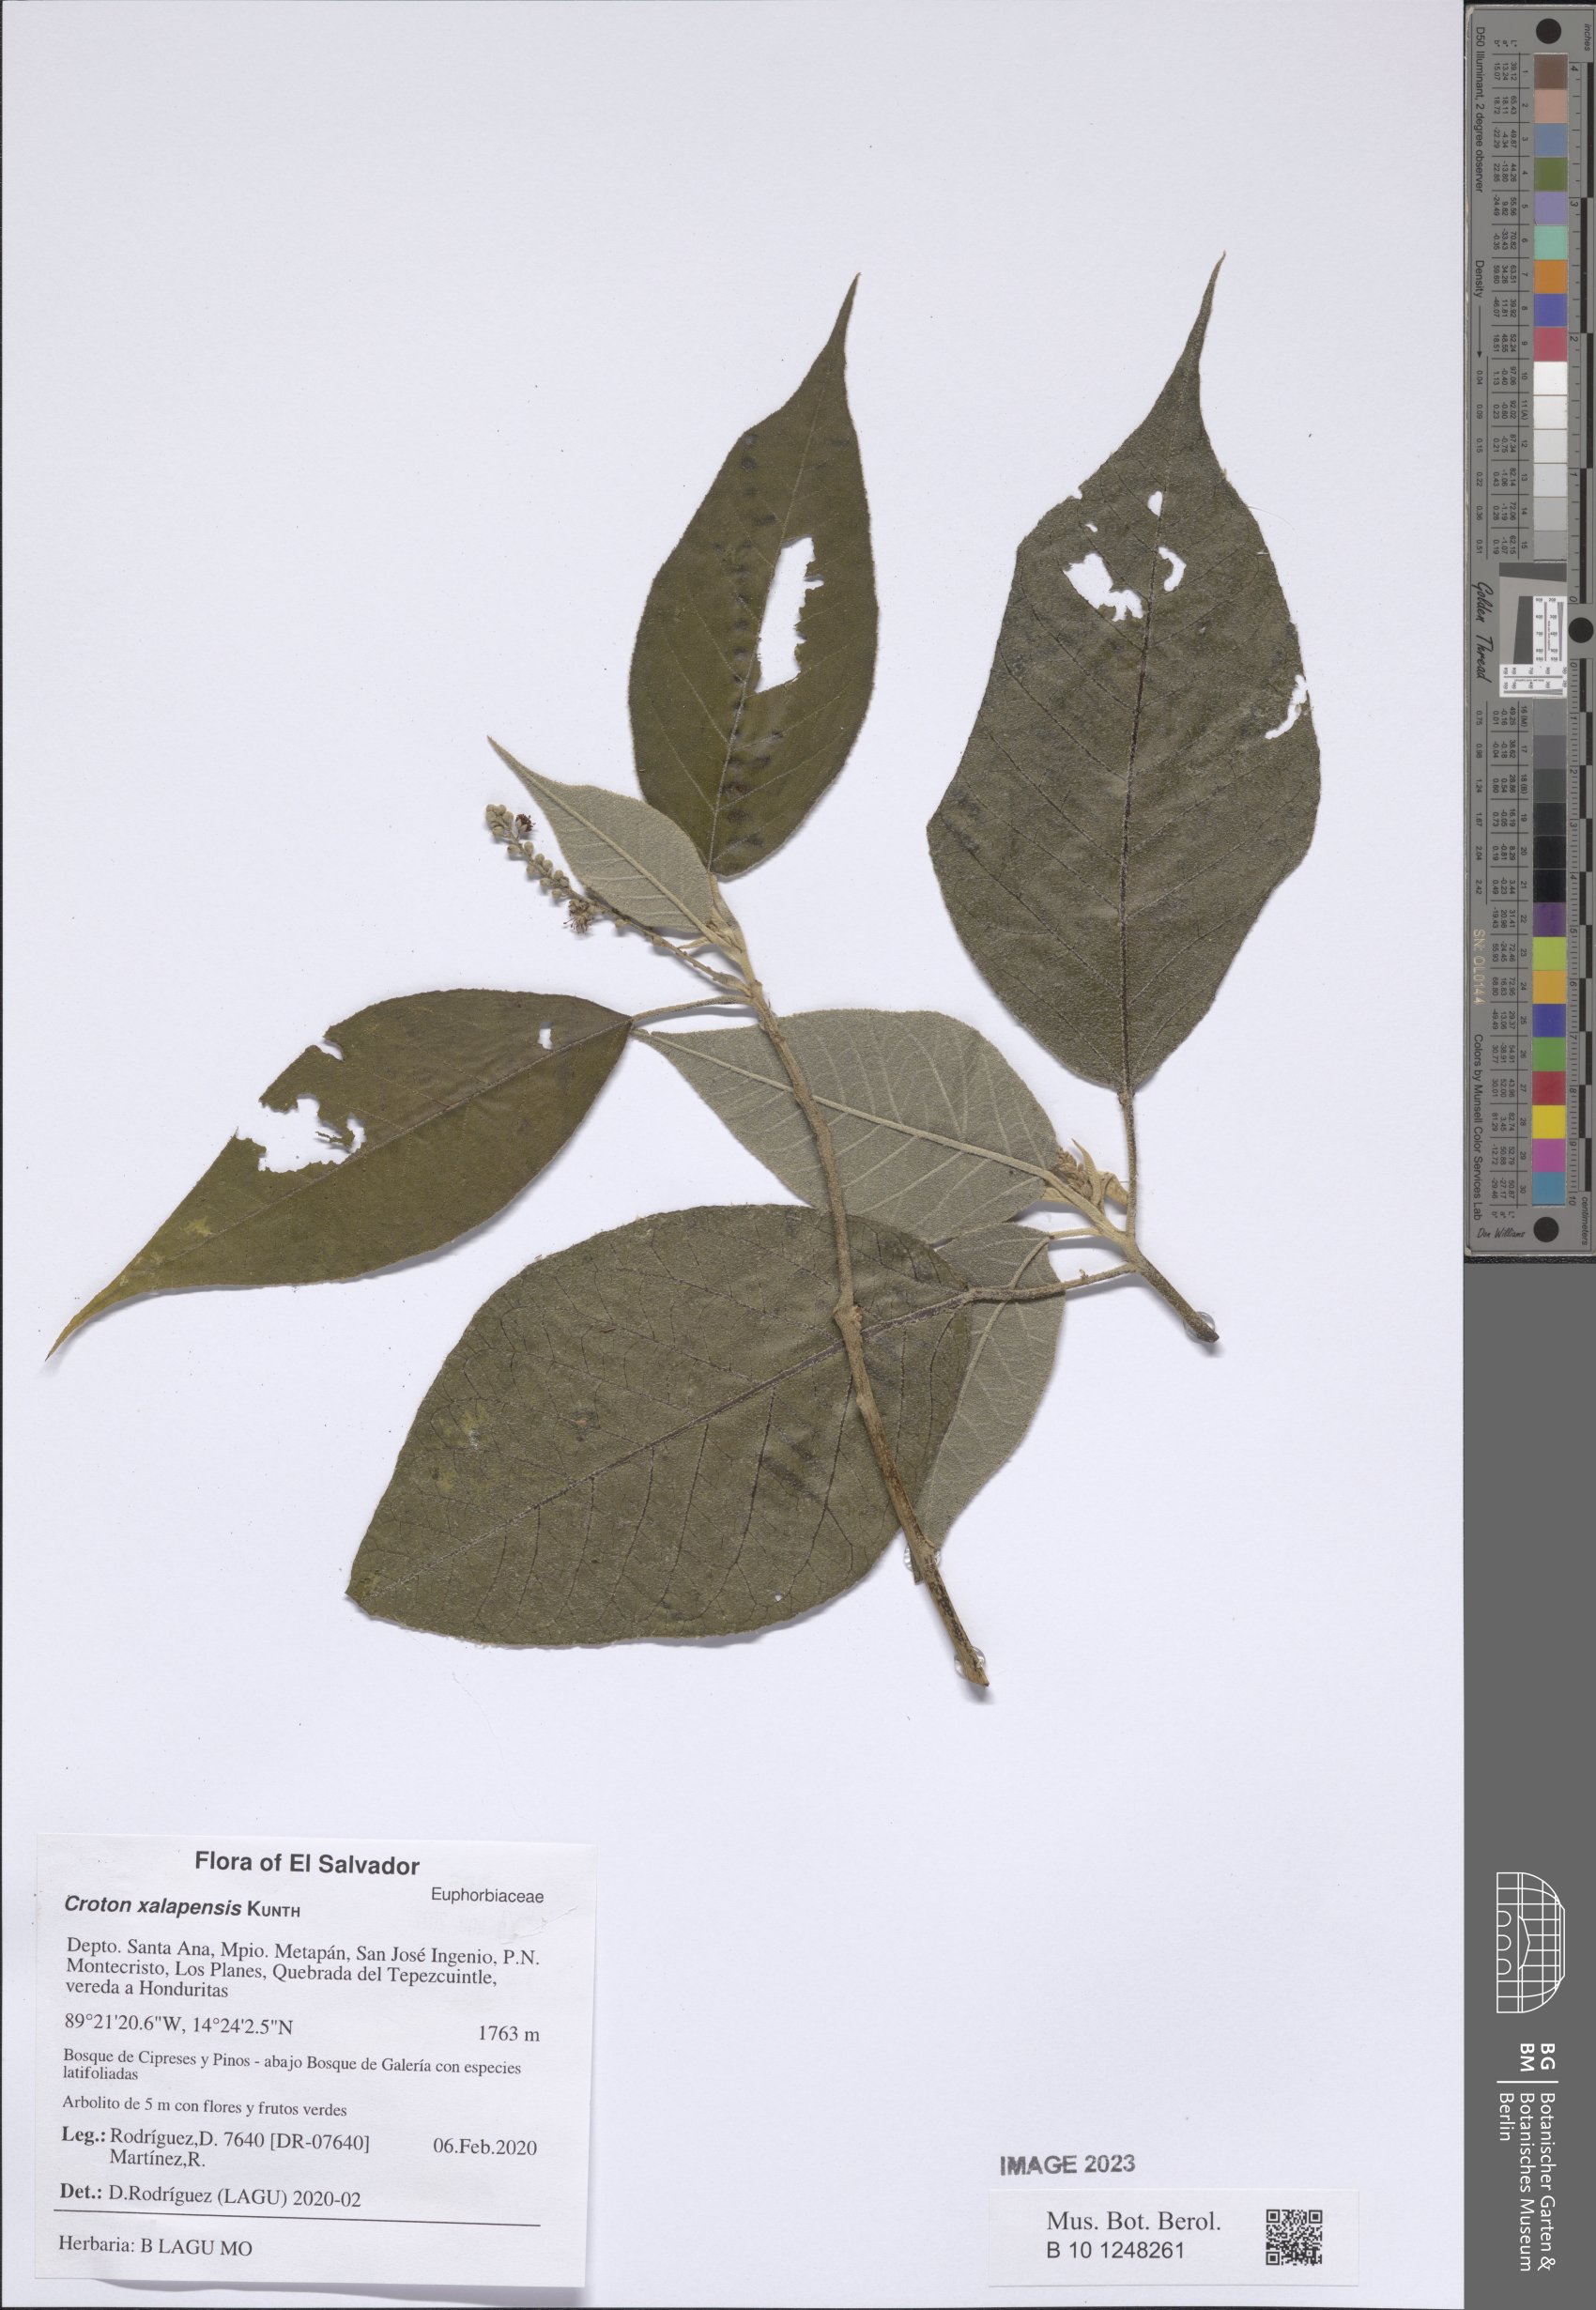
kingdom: Plantae
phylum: Tracheophyta
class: Magnoliopsida
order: Malpighiales
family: Euphorbiaceae
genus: Croton
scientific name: Croton xalapensis
